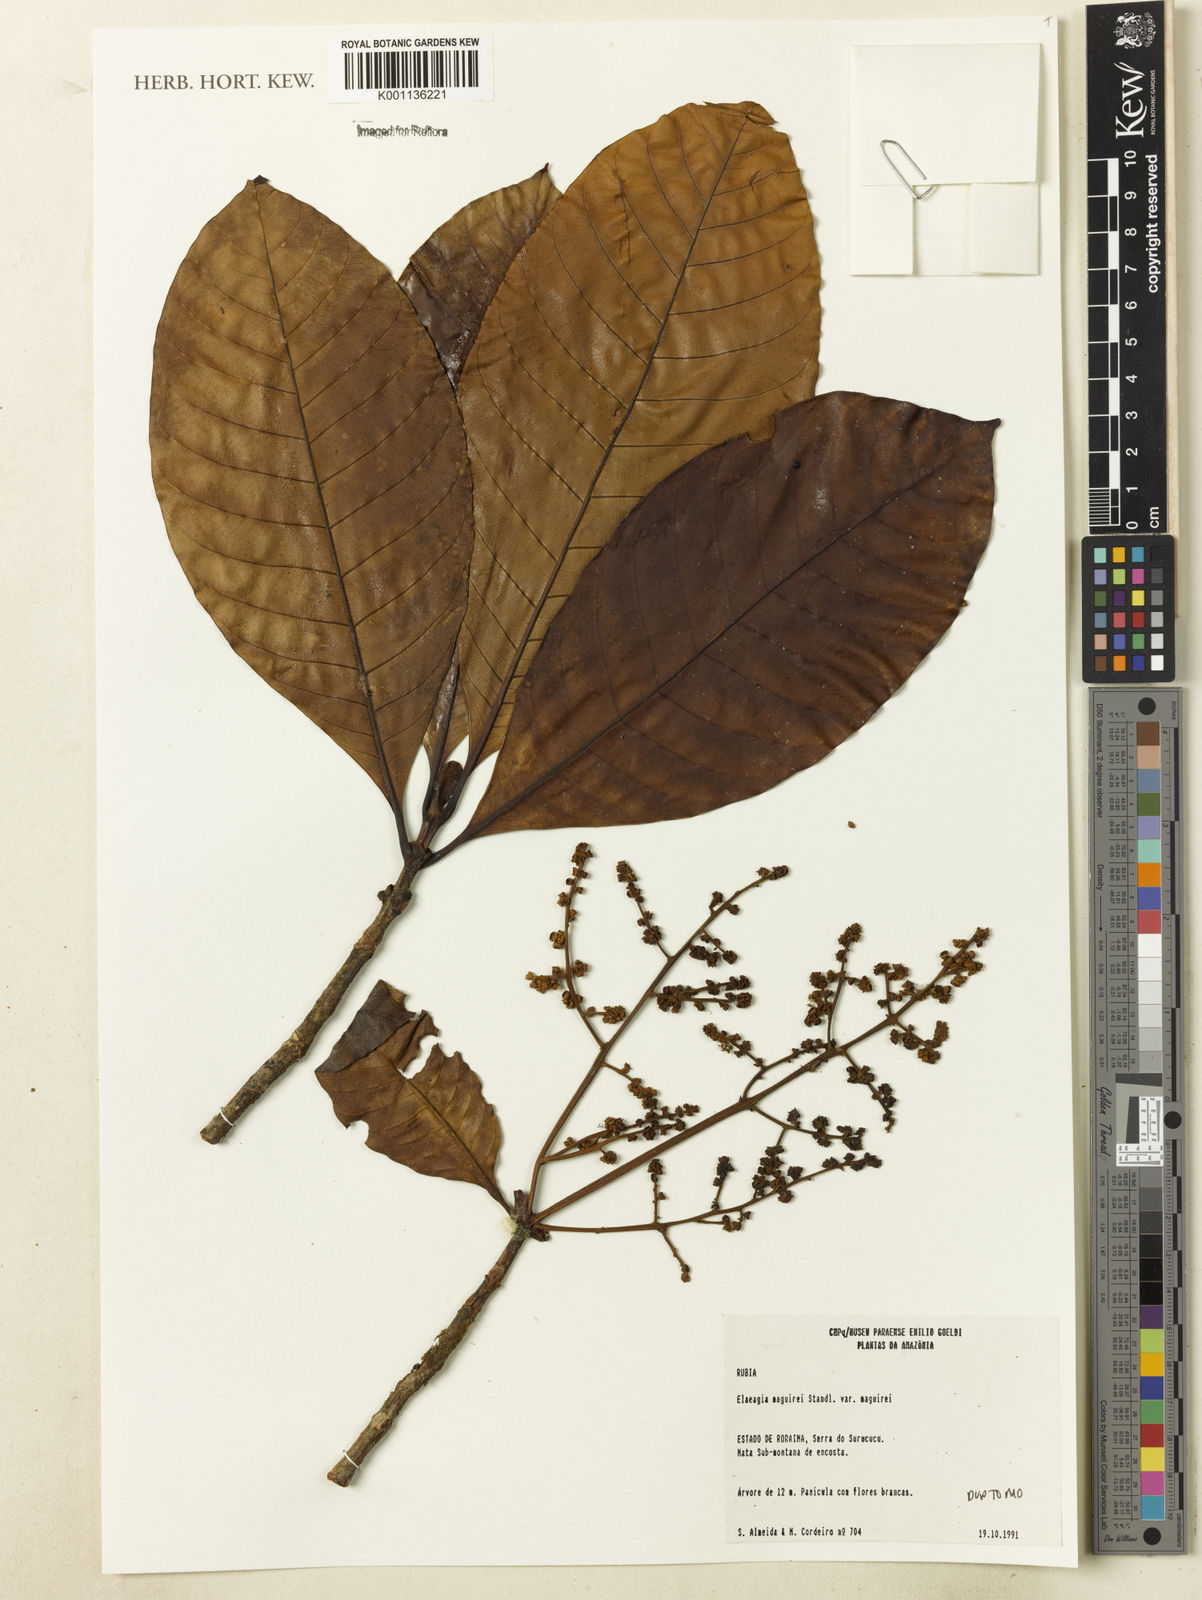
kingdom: Plantae
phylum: Tracheophyta
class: Magnoliopsida
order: Gentianales
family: Rubiaceae
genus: Elaeagia
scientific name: Elaeagia maguirei
